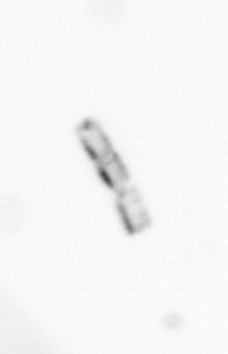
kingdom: Chromista
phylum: Ochrophyta
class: Bacillariophyceae
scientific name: Bacillariophyceae
